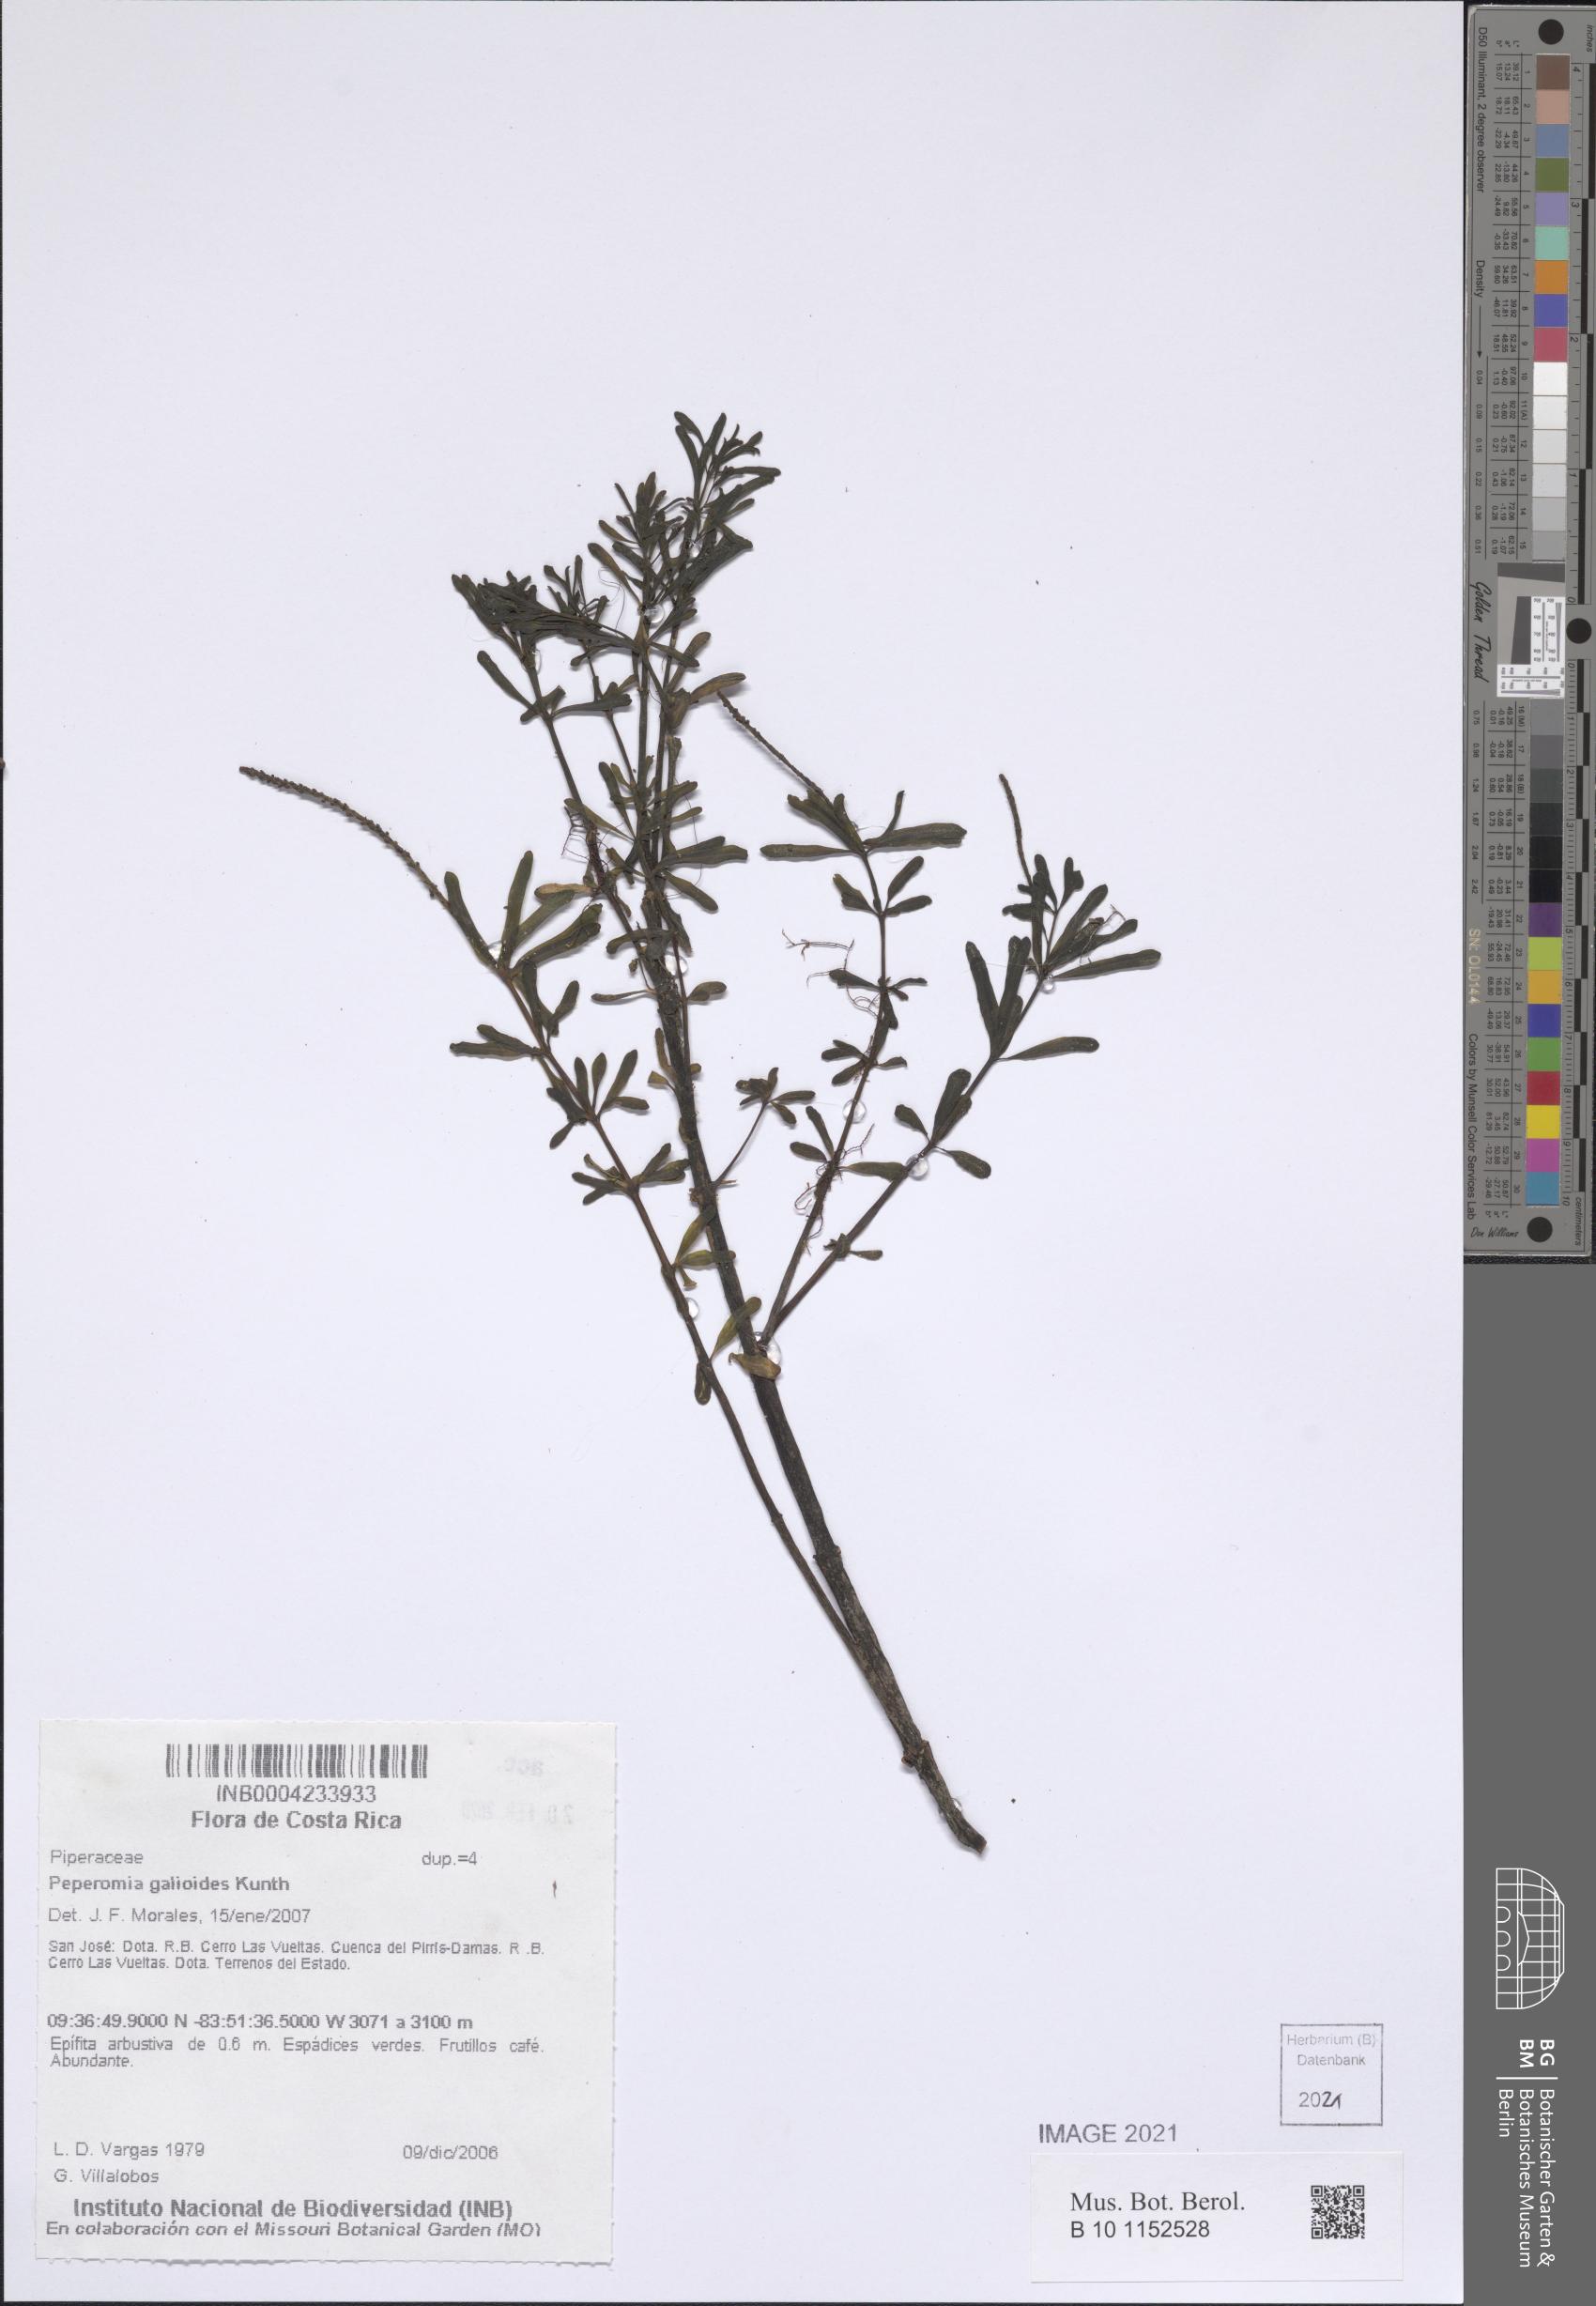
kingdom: Plantae
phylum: Tracheophyta
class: Magnoliopsida
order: Piperales
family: Piperaceae
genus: Peperomia
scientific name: Peperomia galioides
